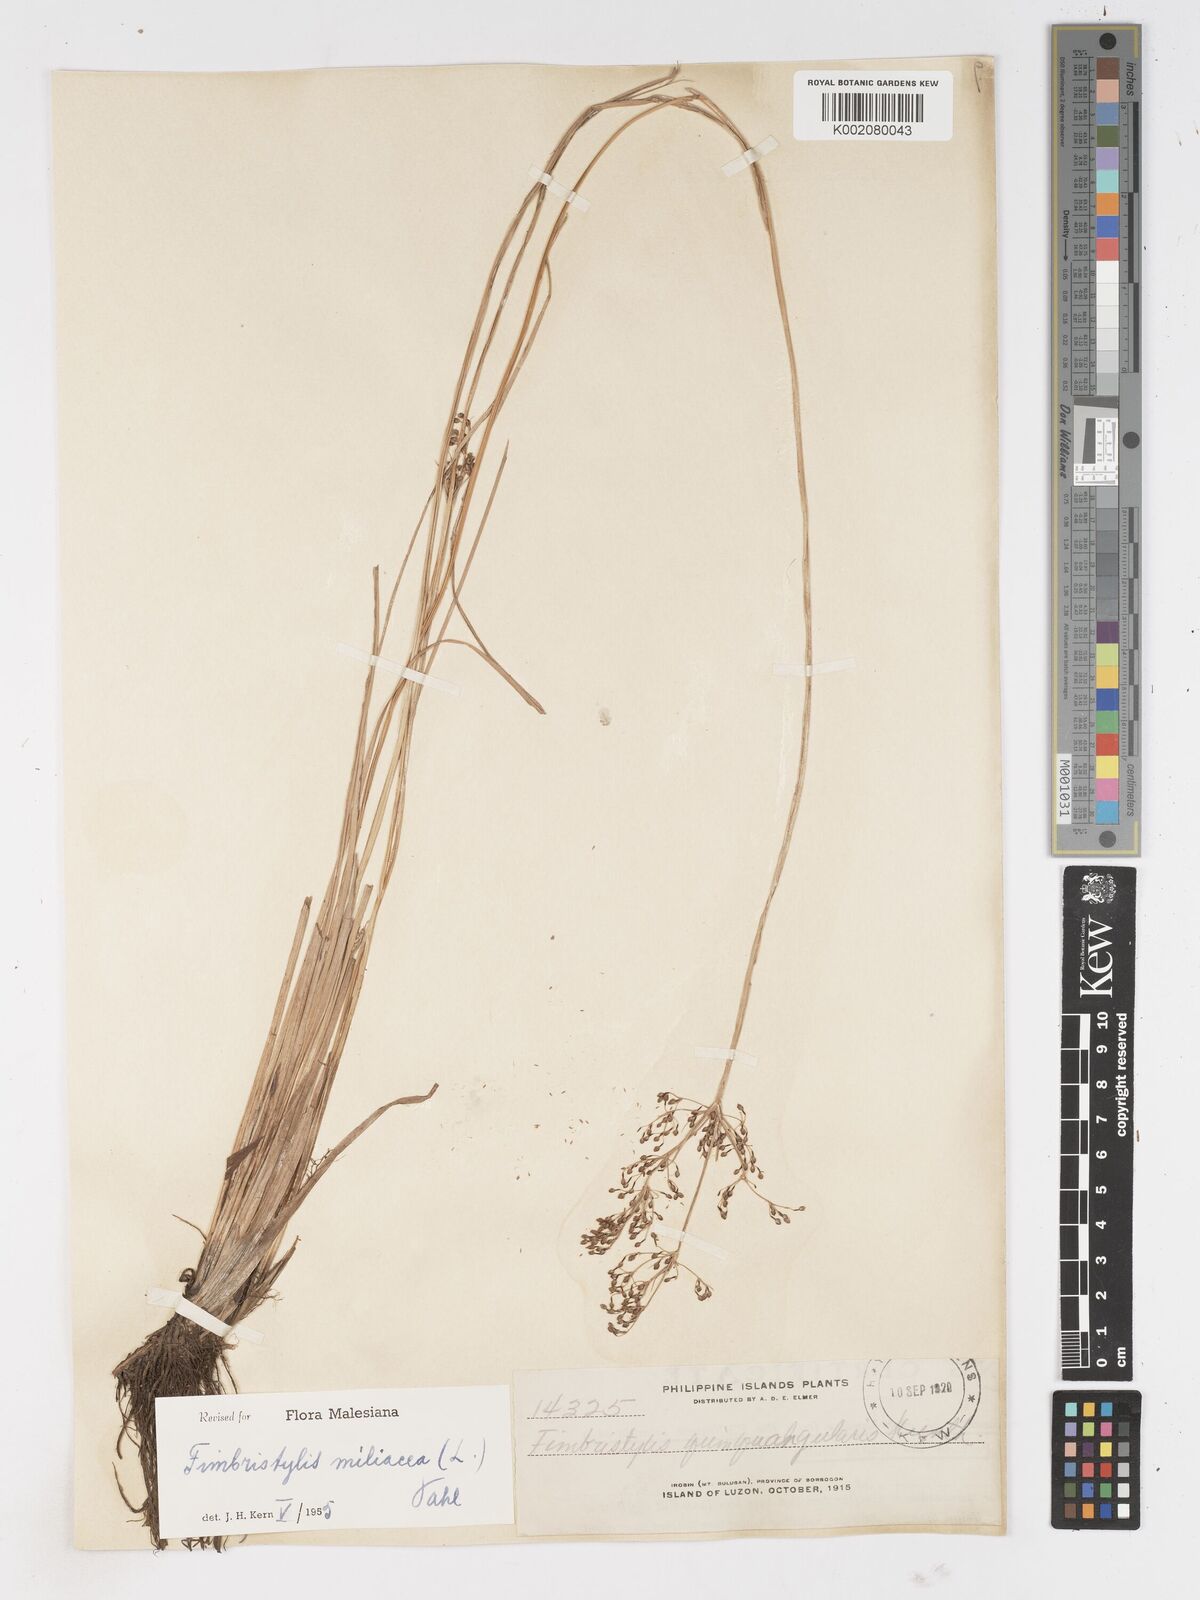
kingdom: Plantae
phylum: Tracheophyta
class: Liliopsida
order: Poales
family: Cyperaceae
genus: Fimbristylis
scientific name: Fimbristylis littoralis
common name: Fimbry
